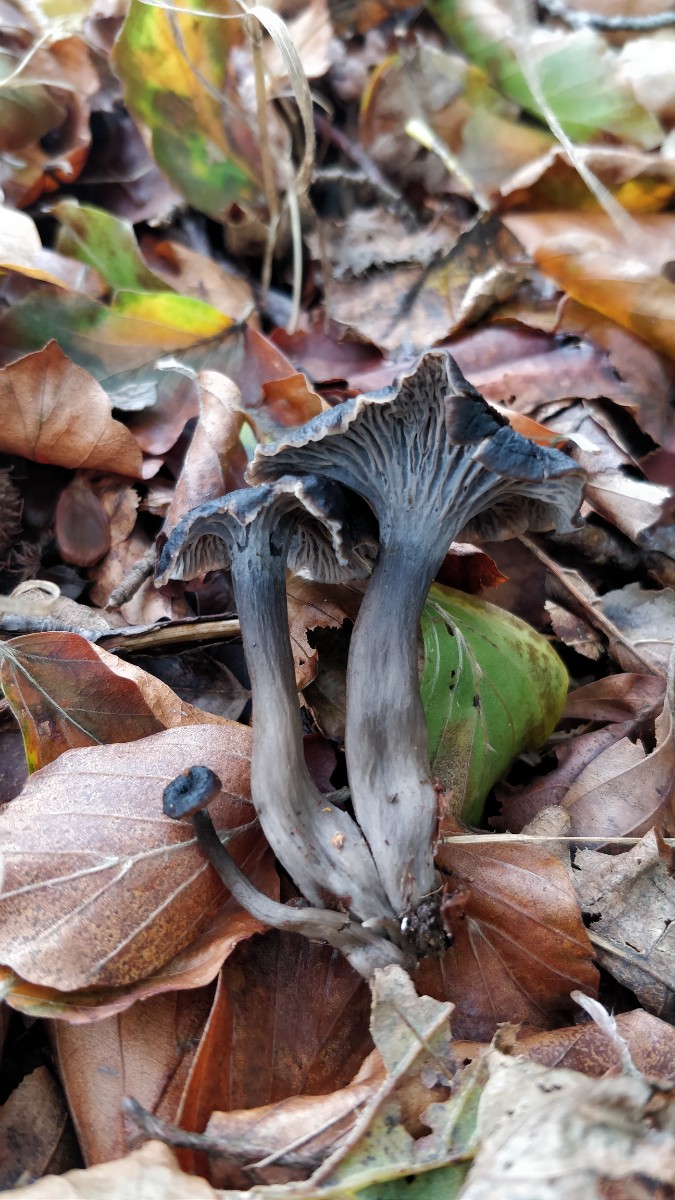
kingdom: Fungi
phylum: Basidiomycota
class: Agaricomycetes
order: Cantharellales
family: Hydnaceae
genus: Cantharellus
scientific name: Cantharellus cinereus
